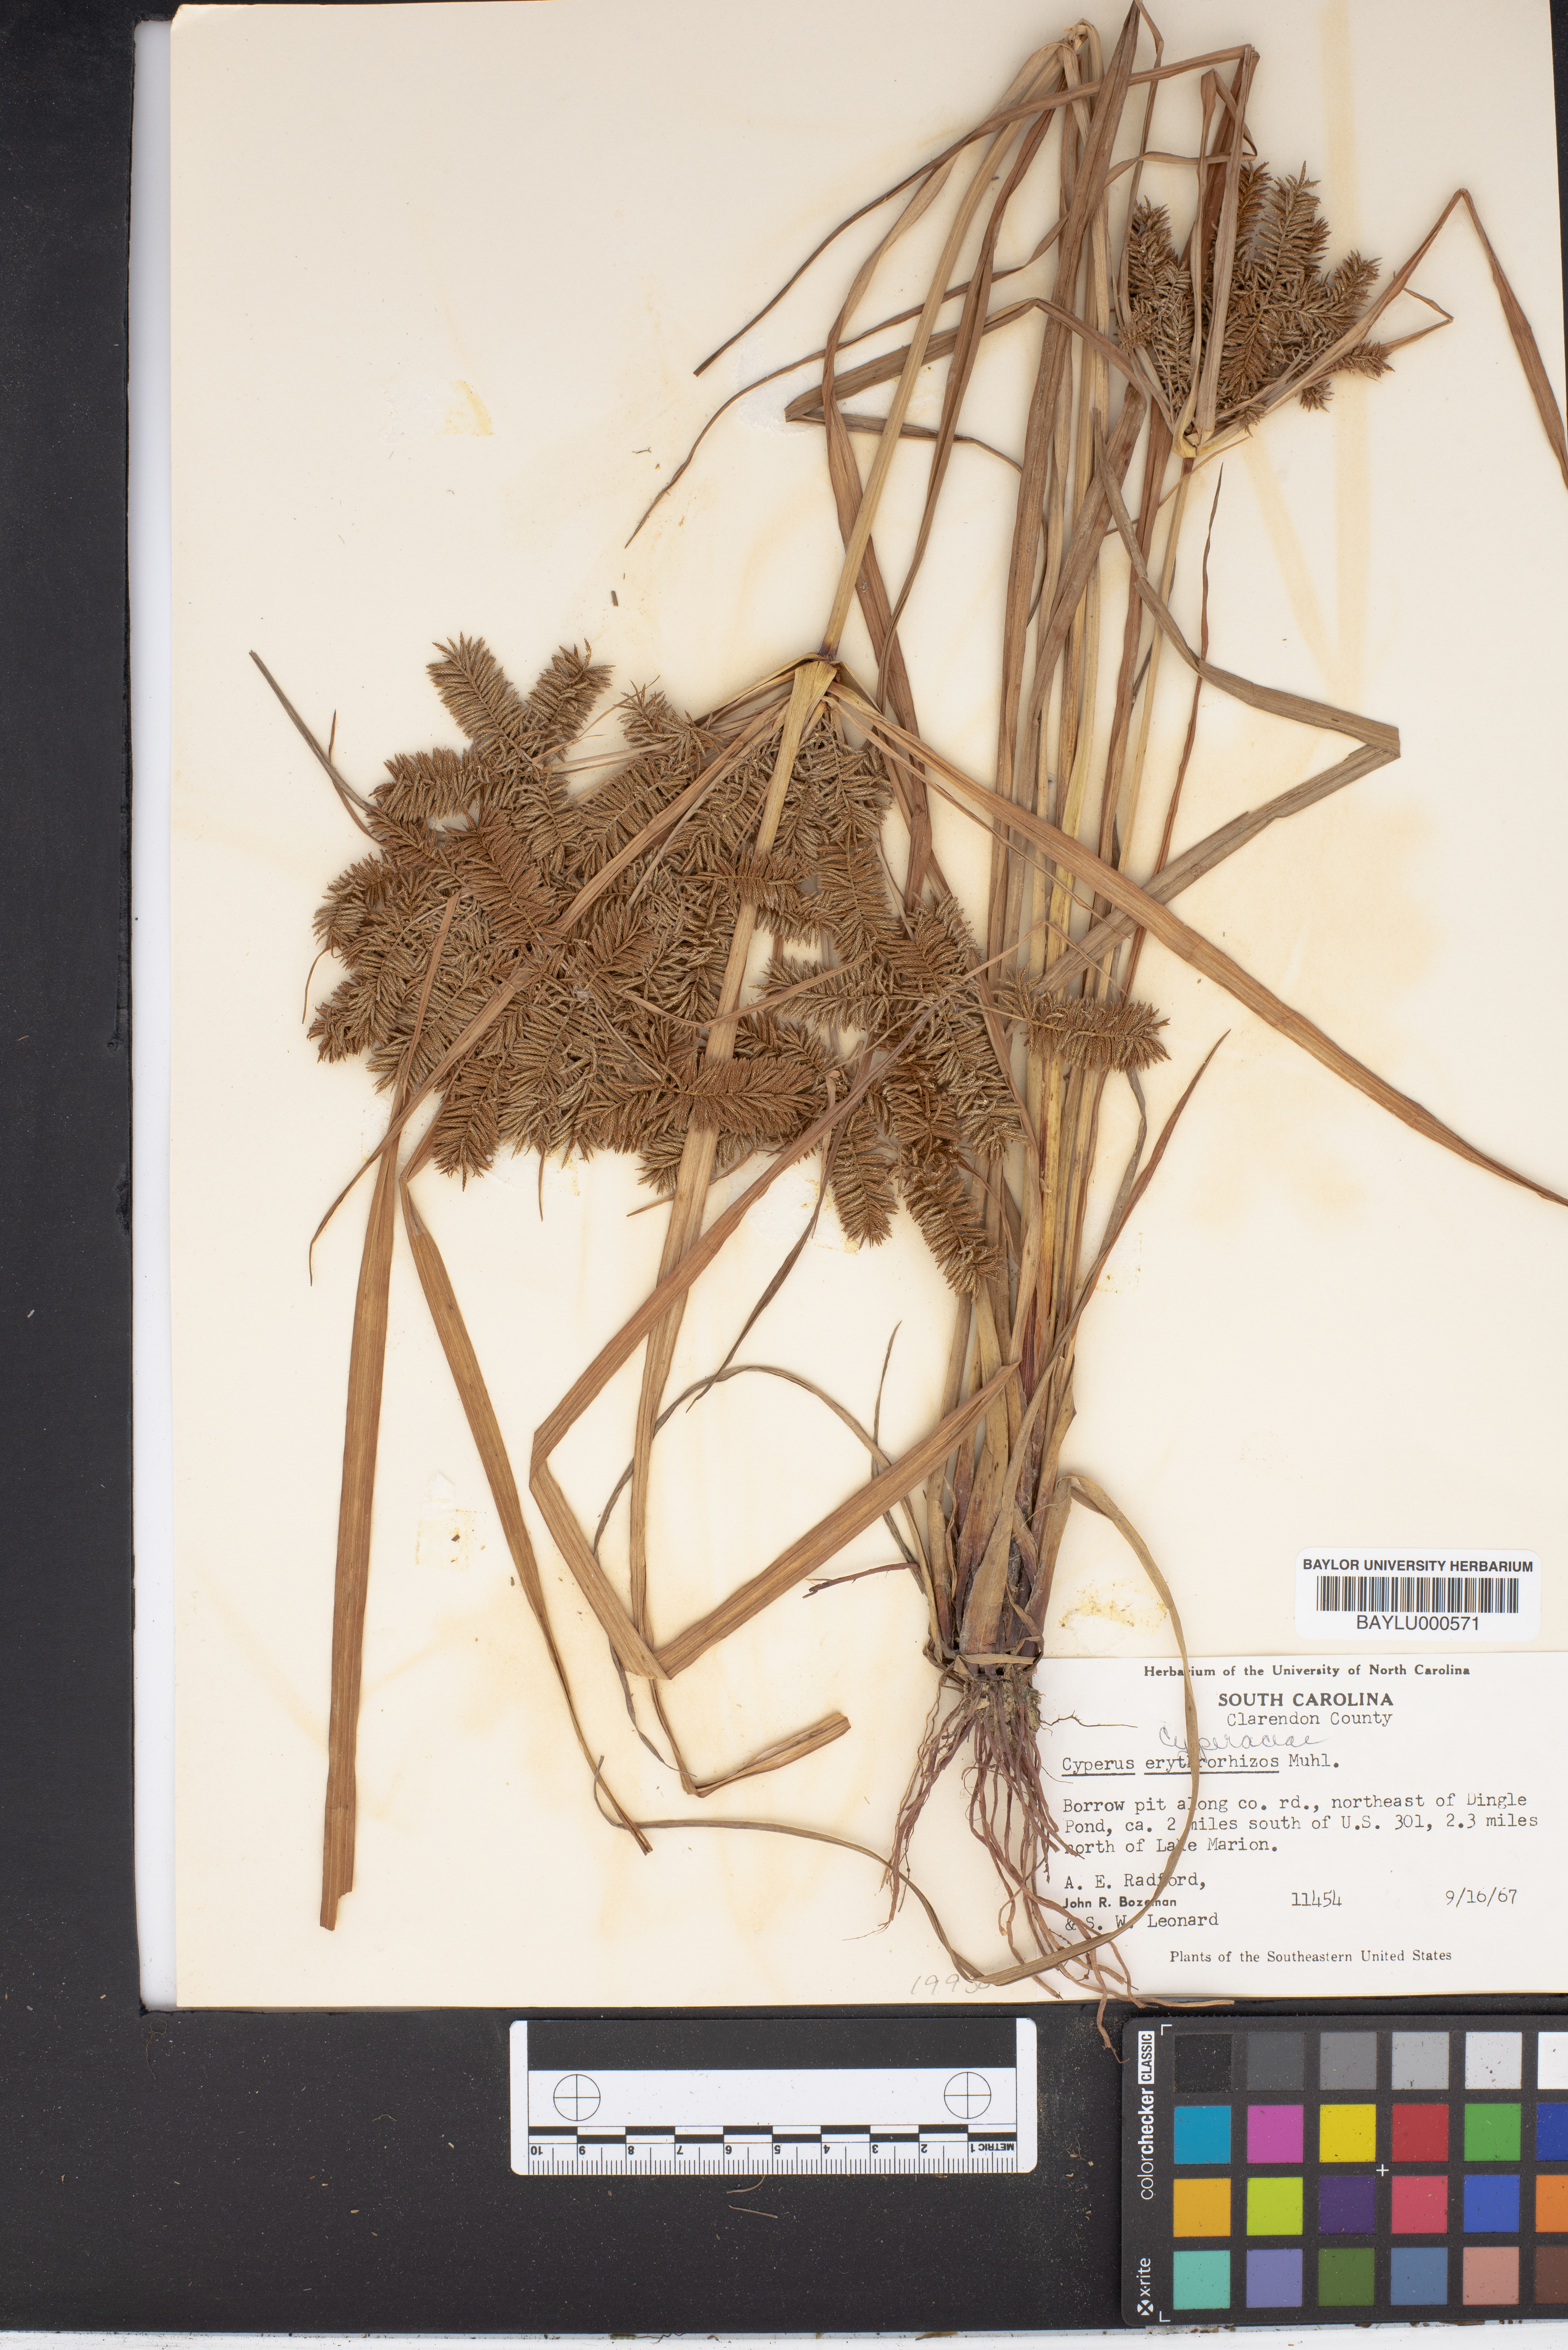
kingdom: Plantae
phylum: Tracheophyta
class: Liliopsida
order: Poales
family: Cyperaceae
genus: Cyperus
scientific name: Cyperus erythrorhizos
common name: Red-root flat sedge
